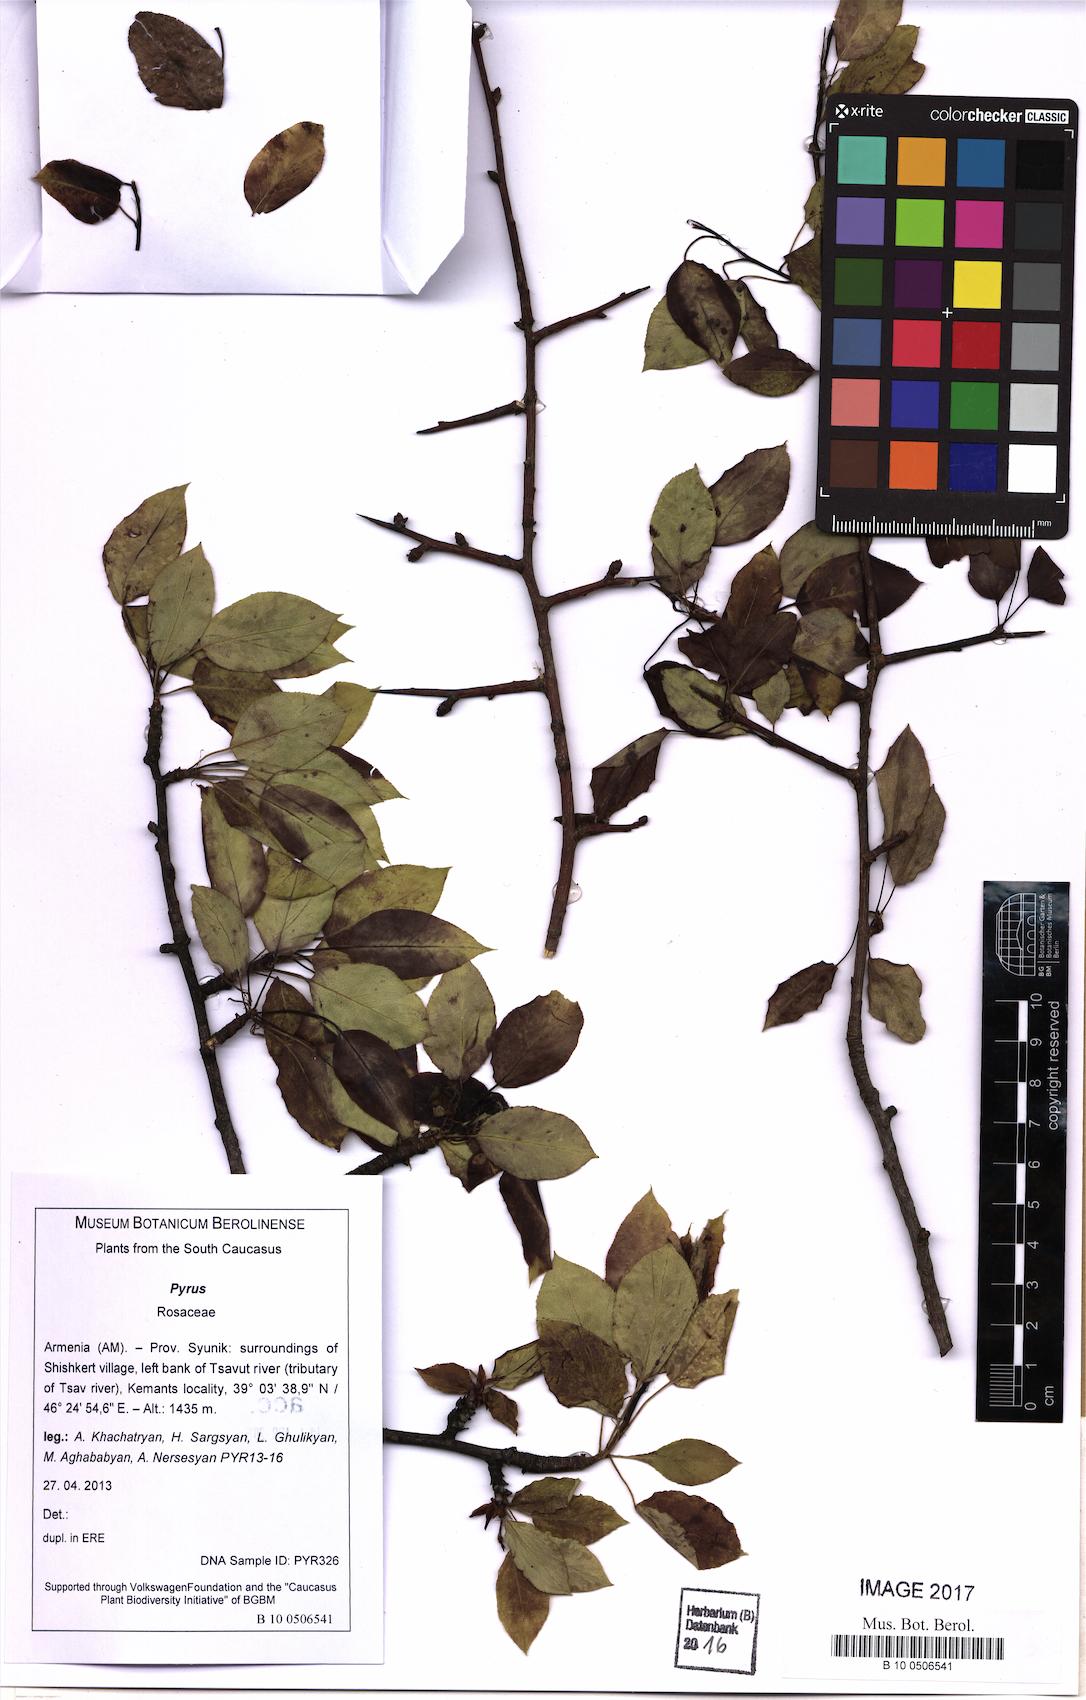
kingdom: Plantae
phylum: Tracheophyta
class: Magnoliopsida
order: Rosales
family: Rosaceae
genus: Pyrus
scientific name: Pyrus
